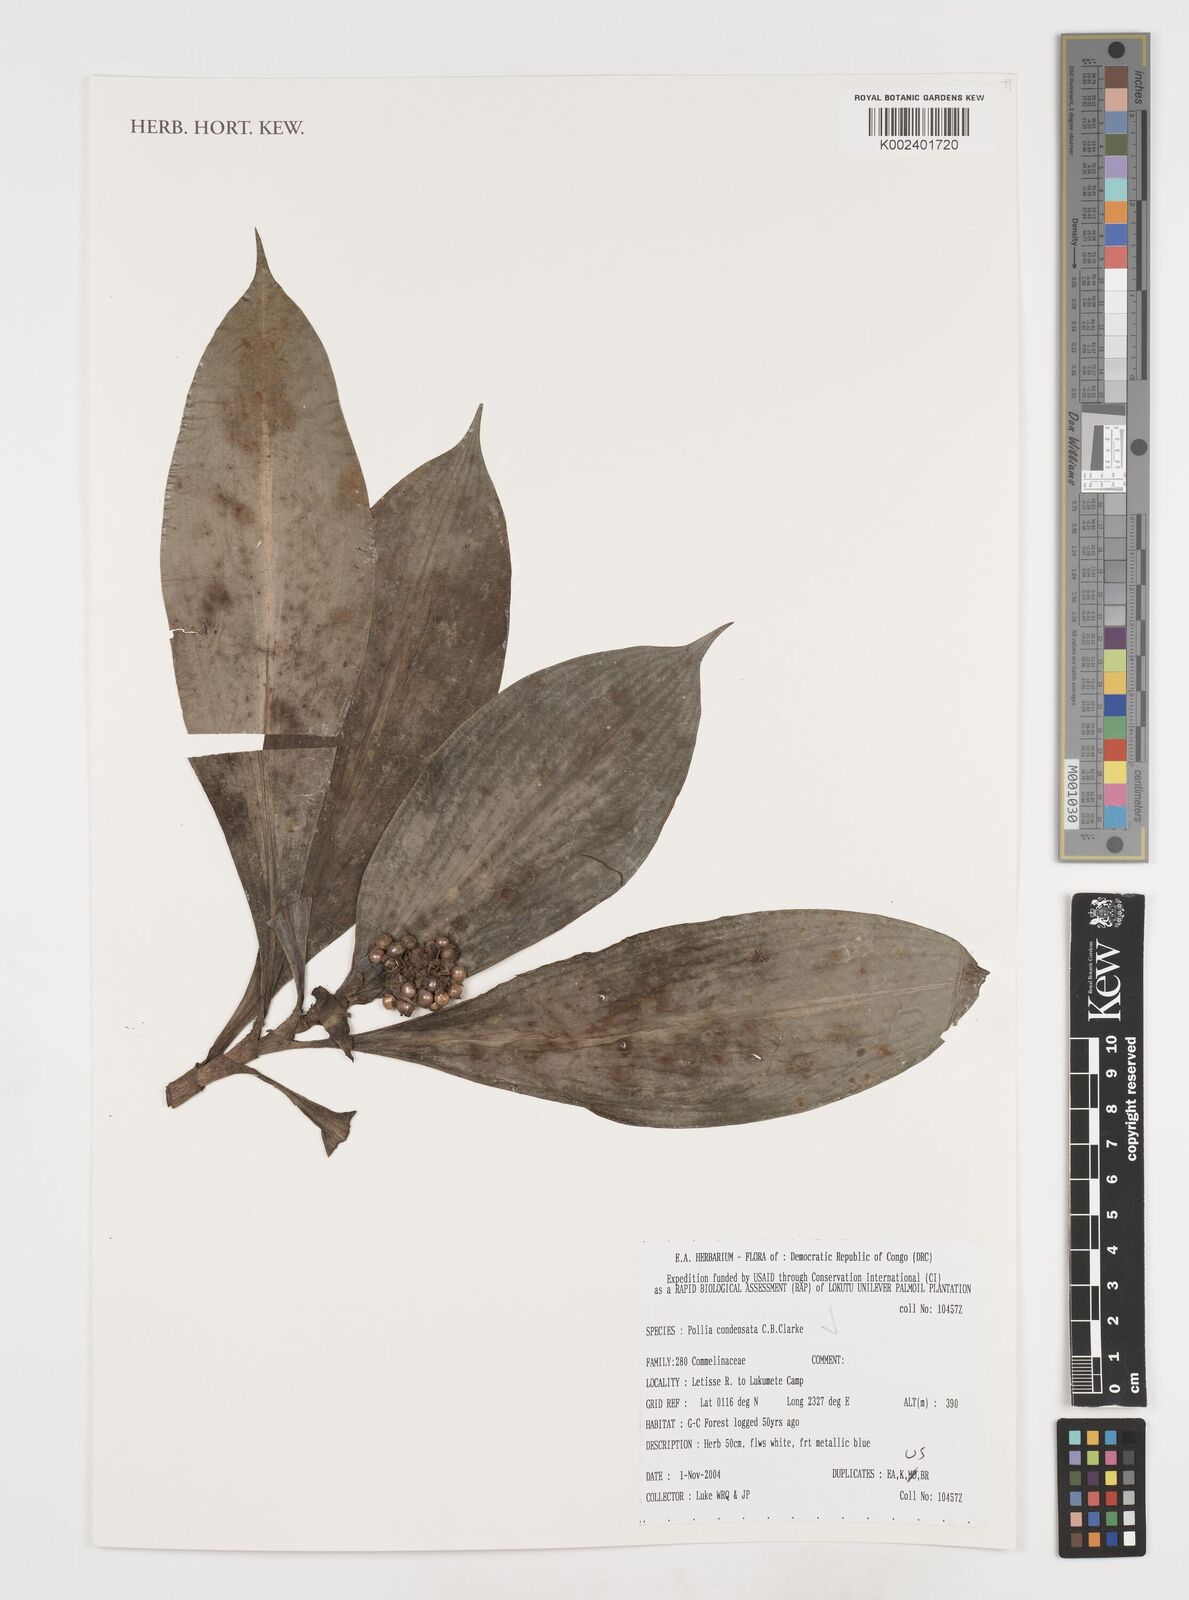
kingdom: Plantae
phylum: Tracheophyta
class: Liliopsida
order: Commelinales
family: Commelinaceae
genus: Pollia
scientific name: Pollia condensata
